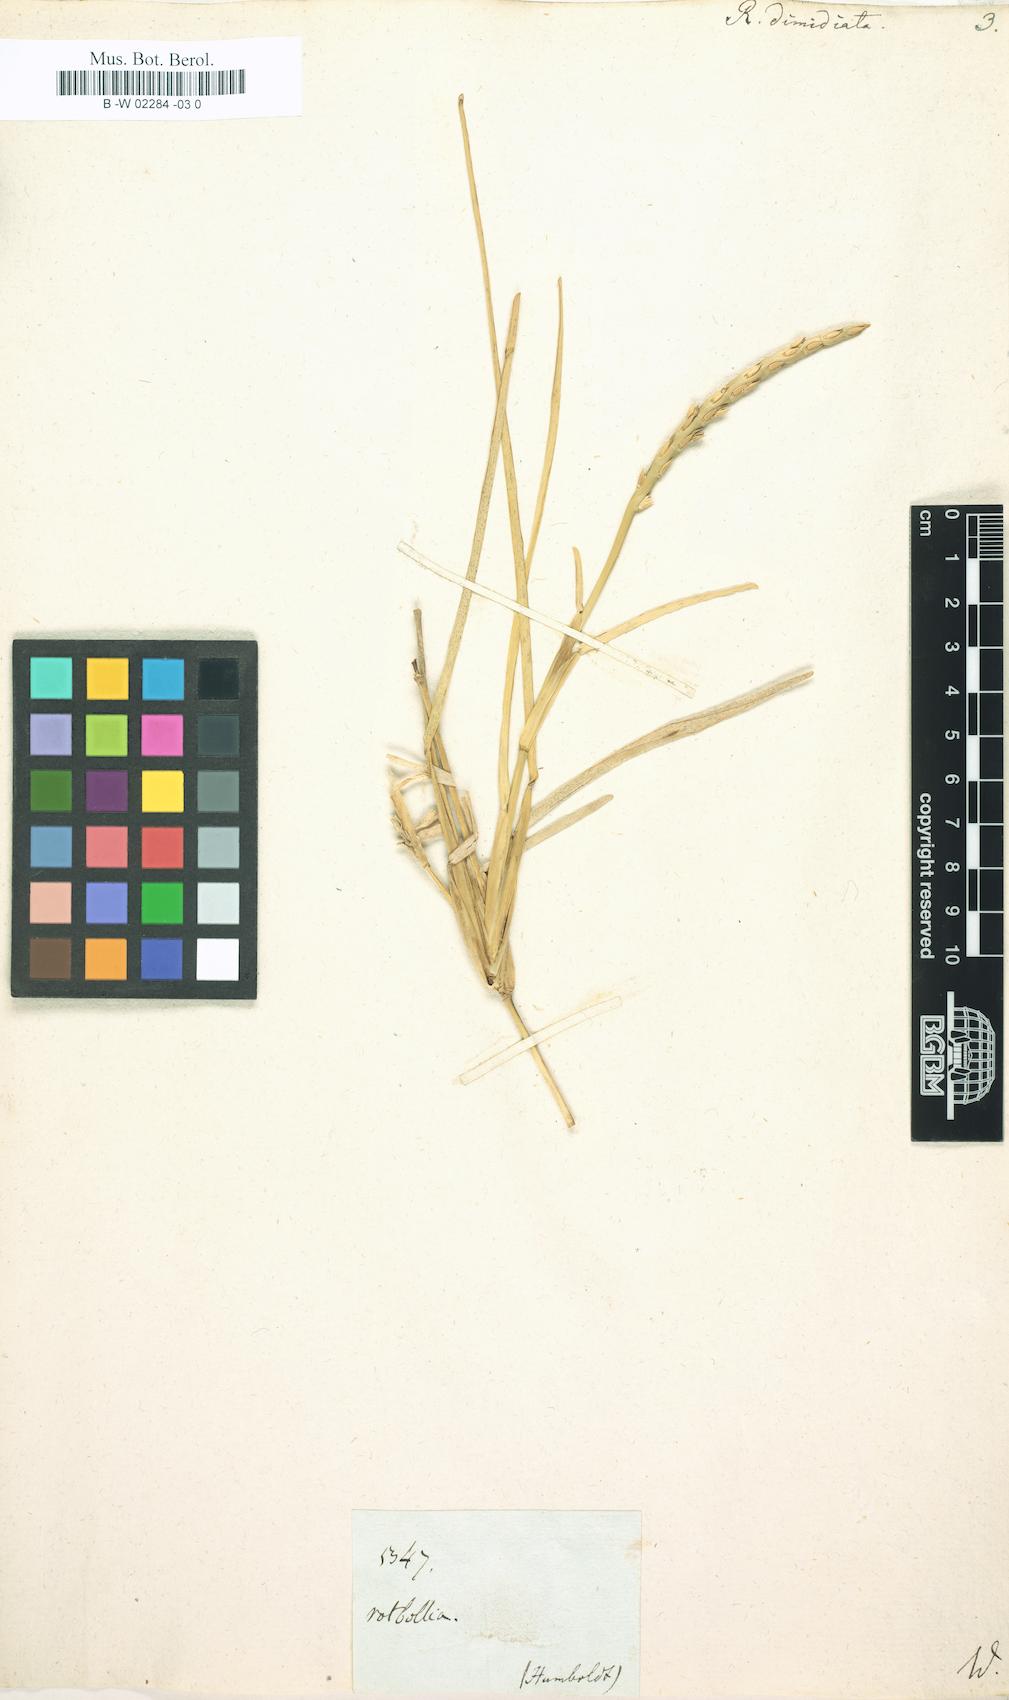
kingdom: Plantae
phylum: Tracheophyta
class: Liliopsida
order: Poales
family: Poaceae
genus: Stenotaphrum
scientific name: Stenotaphrum
